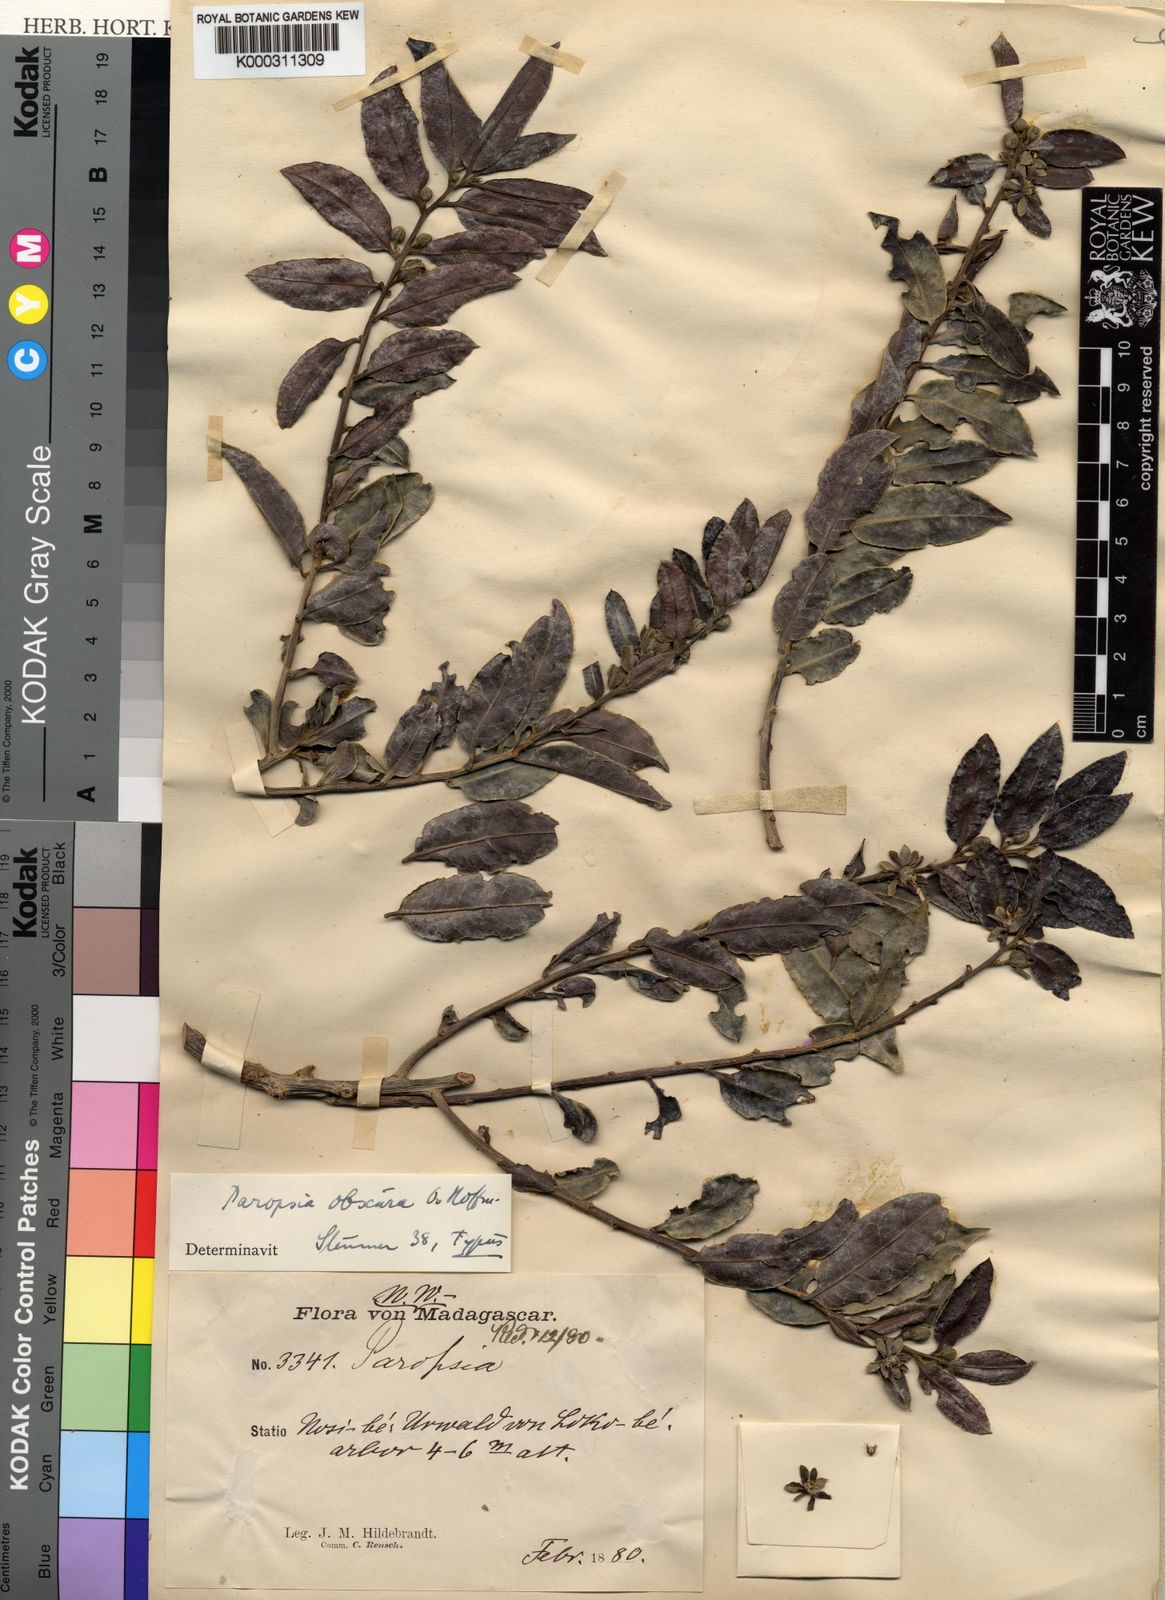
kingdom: Plantae
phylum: Tracheophyta
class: Magnoliopsida
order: Malpighiales
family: Passifloraceae
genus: Paropsia
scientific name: Paropsia
